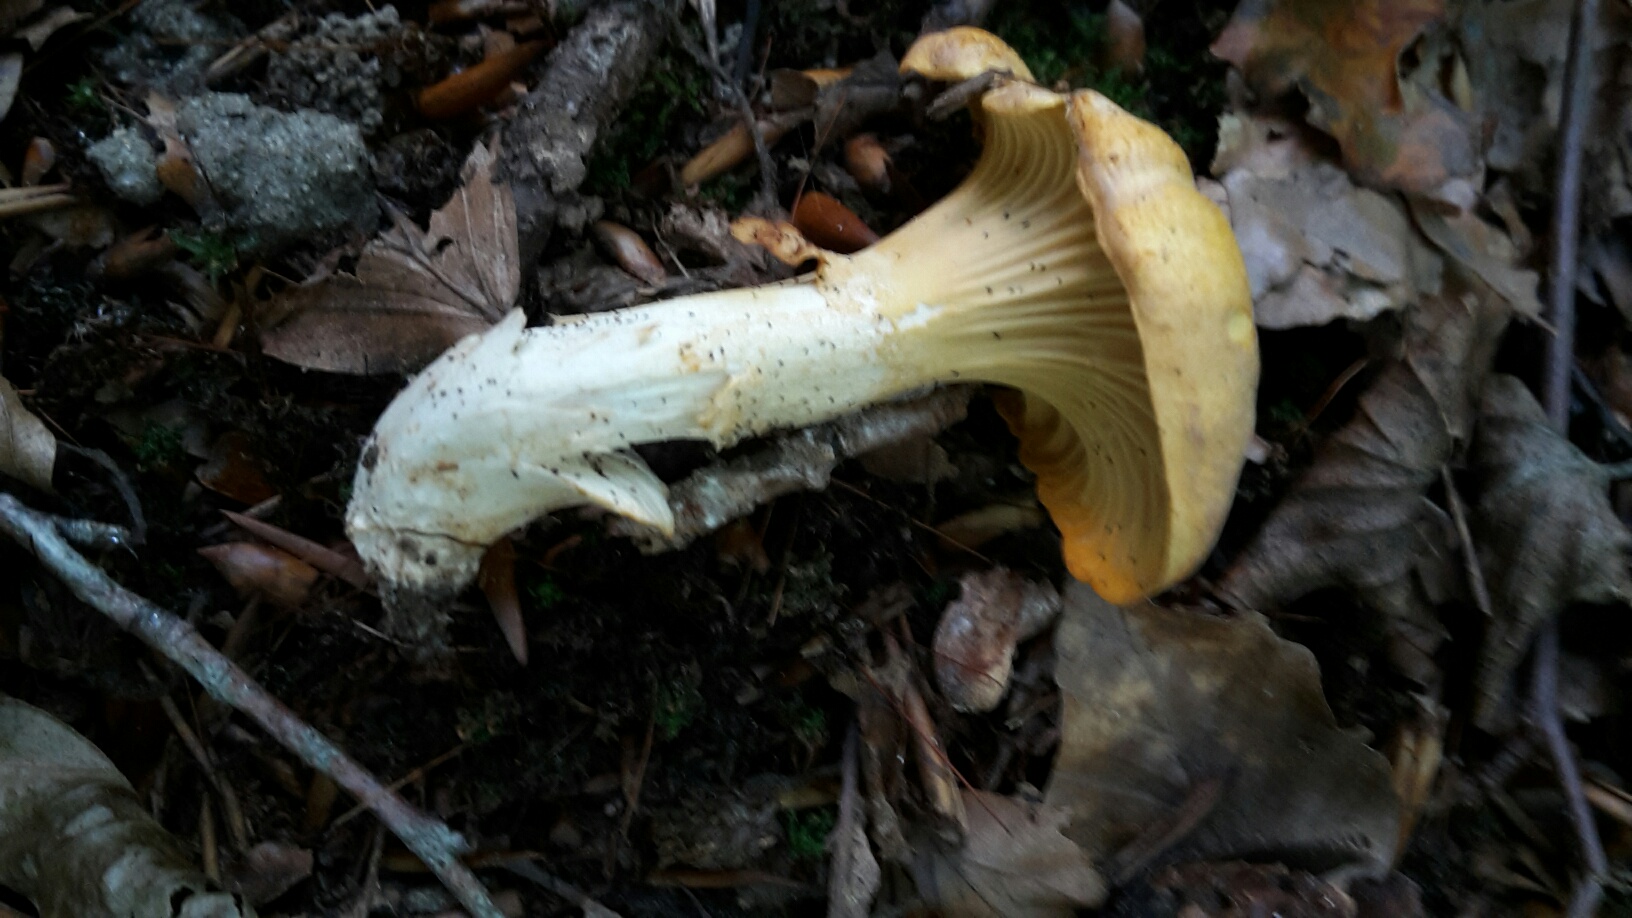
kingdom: Fungi
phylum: Basidiomycota
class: Agaricomycetes
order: Cantharellales
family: Hydnaceae
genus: Cantharellus
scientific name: Cantharellus pallens
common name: bleg kantarel
